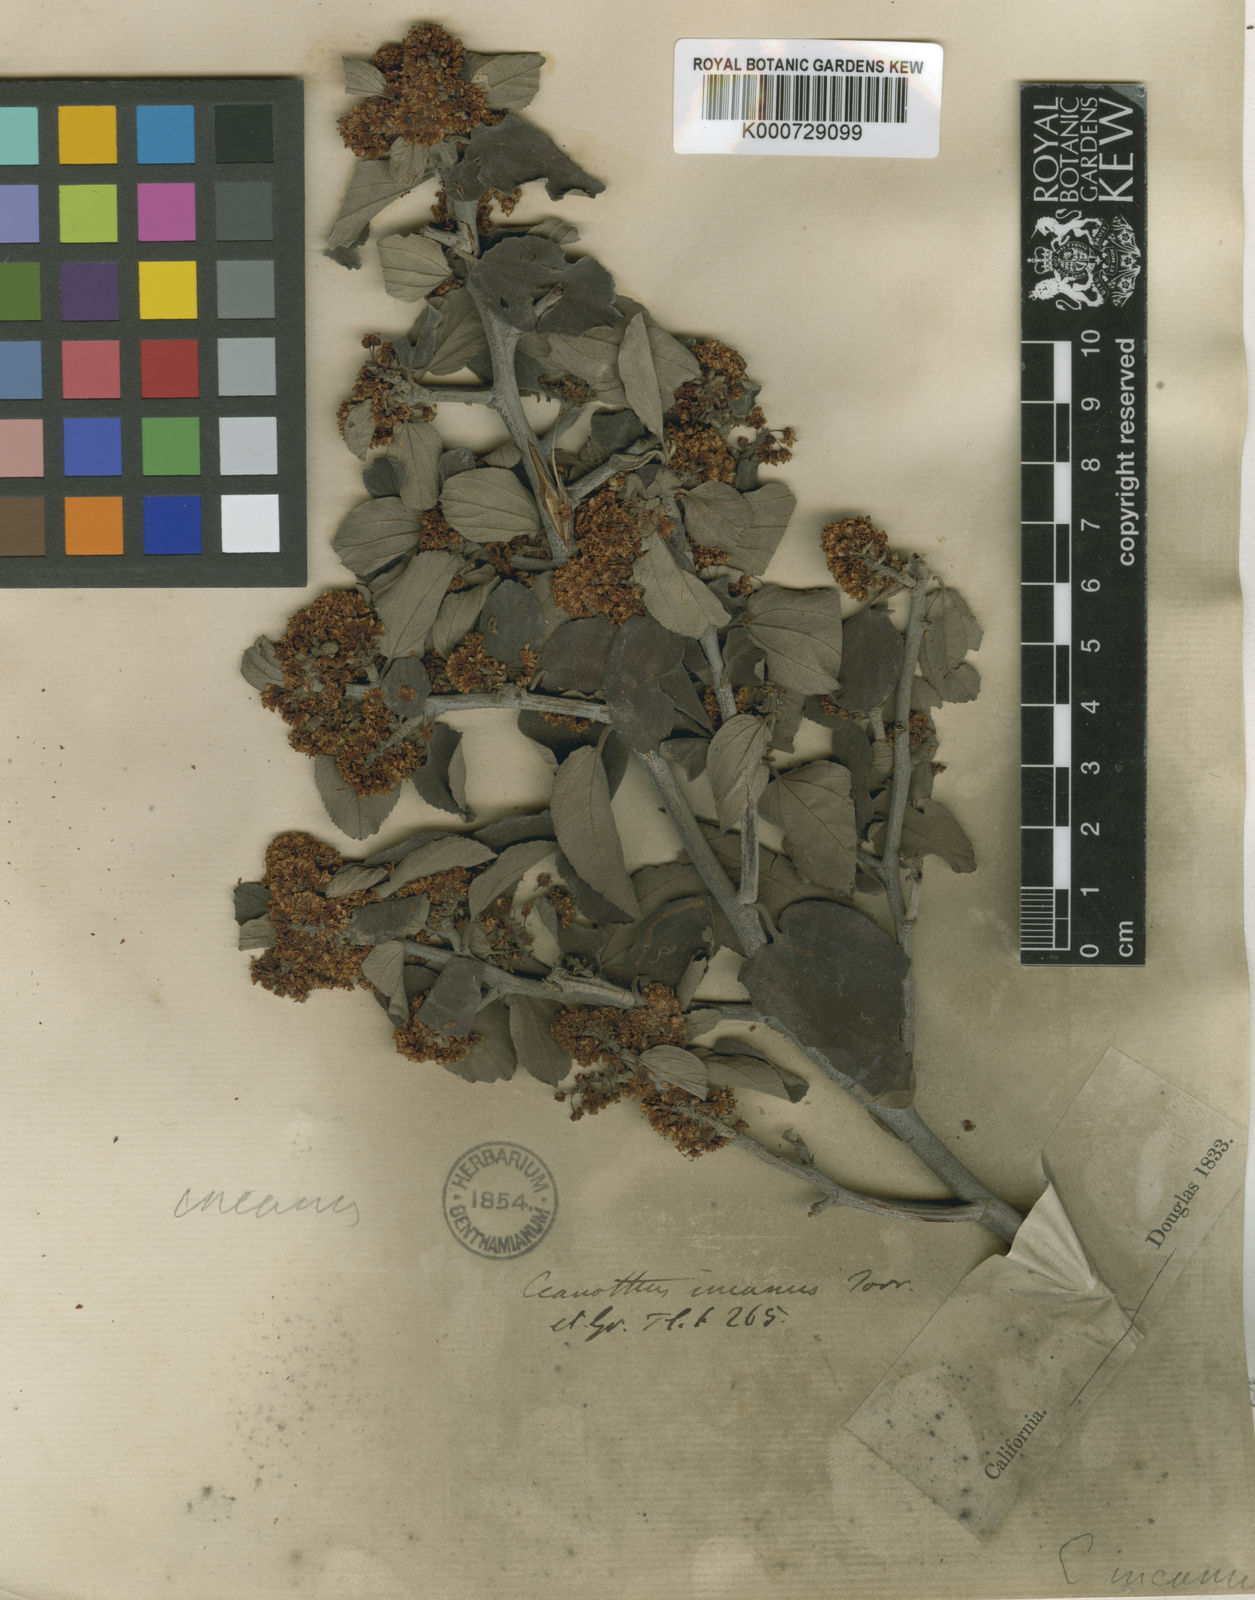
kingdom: Plantae
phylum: Tracheophyta
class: Magnoliopsida
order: Rosales
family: Rhamnaceae
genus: Ceanothus
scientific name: Ceanothus incanus
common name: Coast whitethorn
